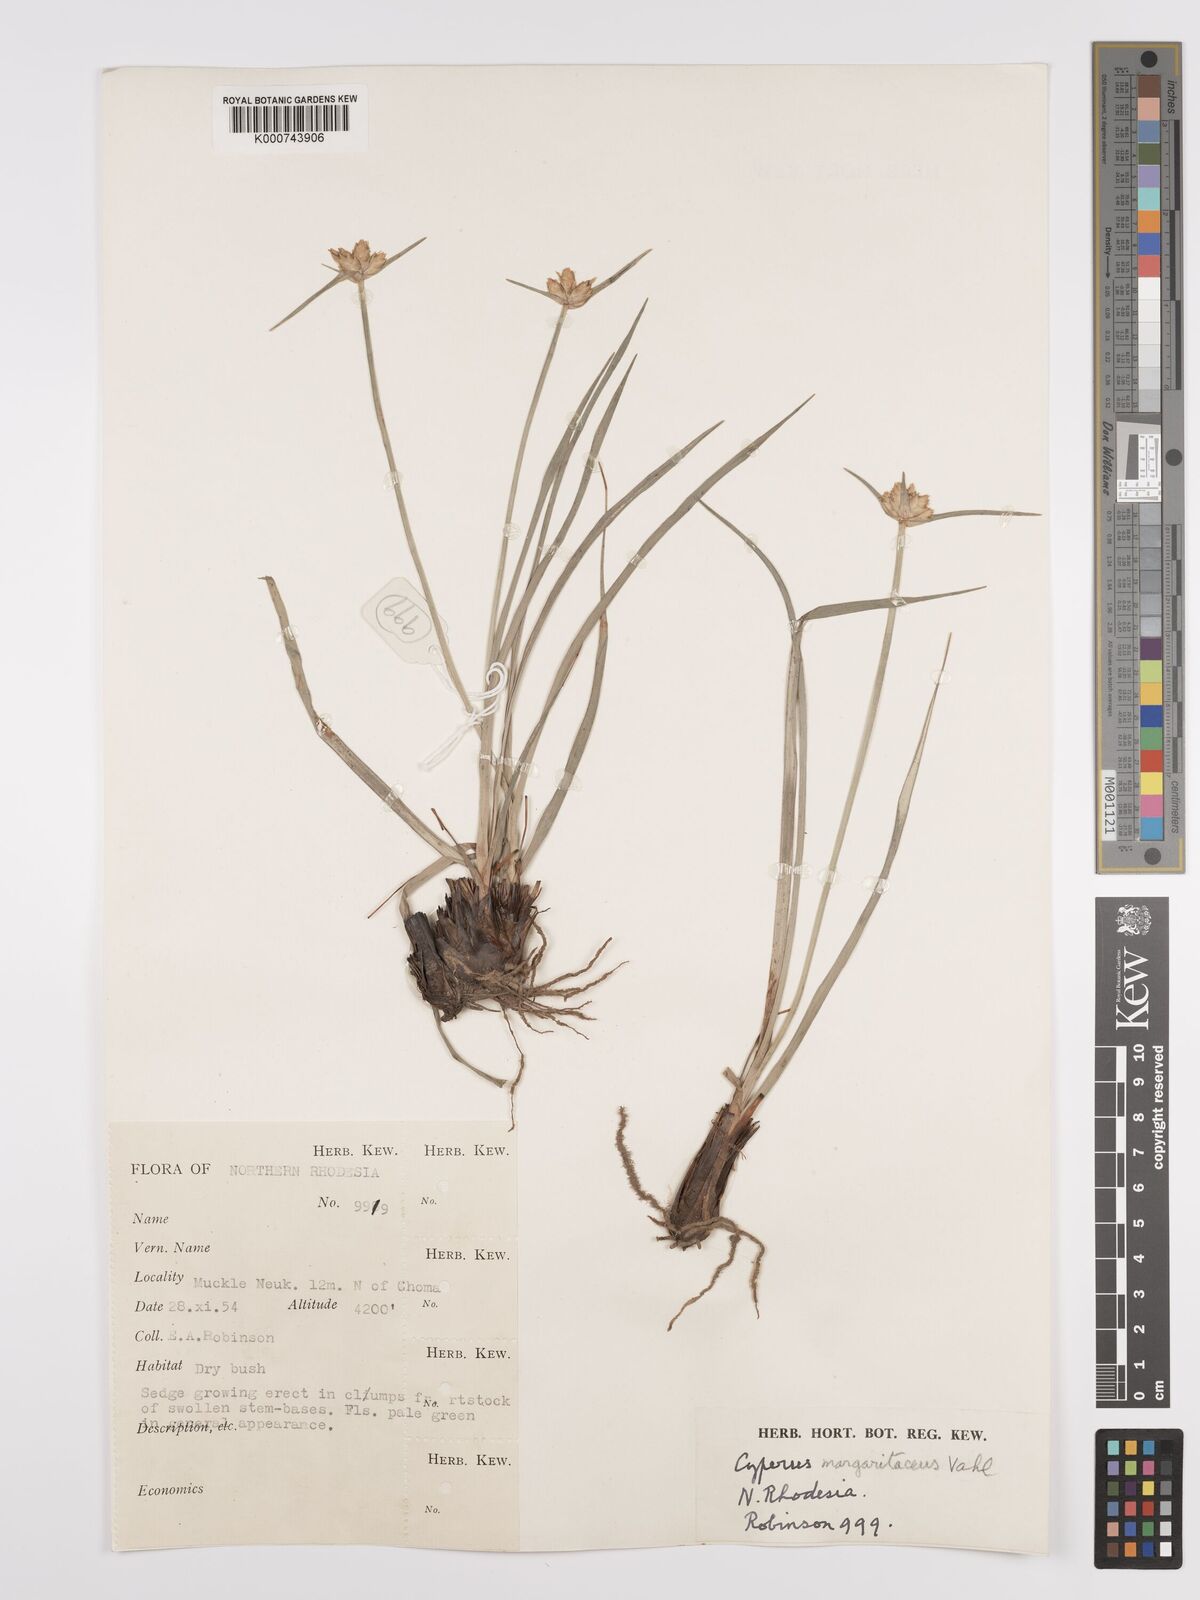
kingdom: Plantae
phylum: Tracheophyta
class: Liliopsida
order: Poales
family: Cyperaceae
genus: Cyperus
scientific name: Cyperus margaritaceus
